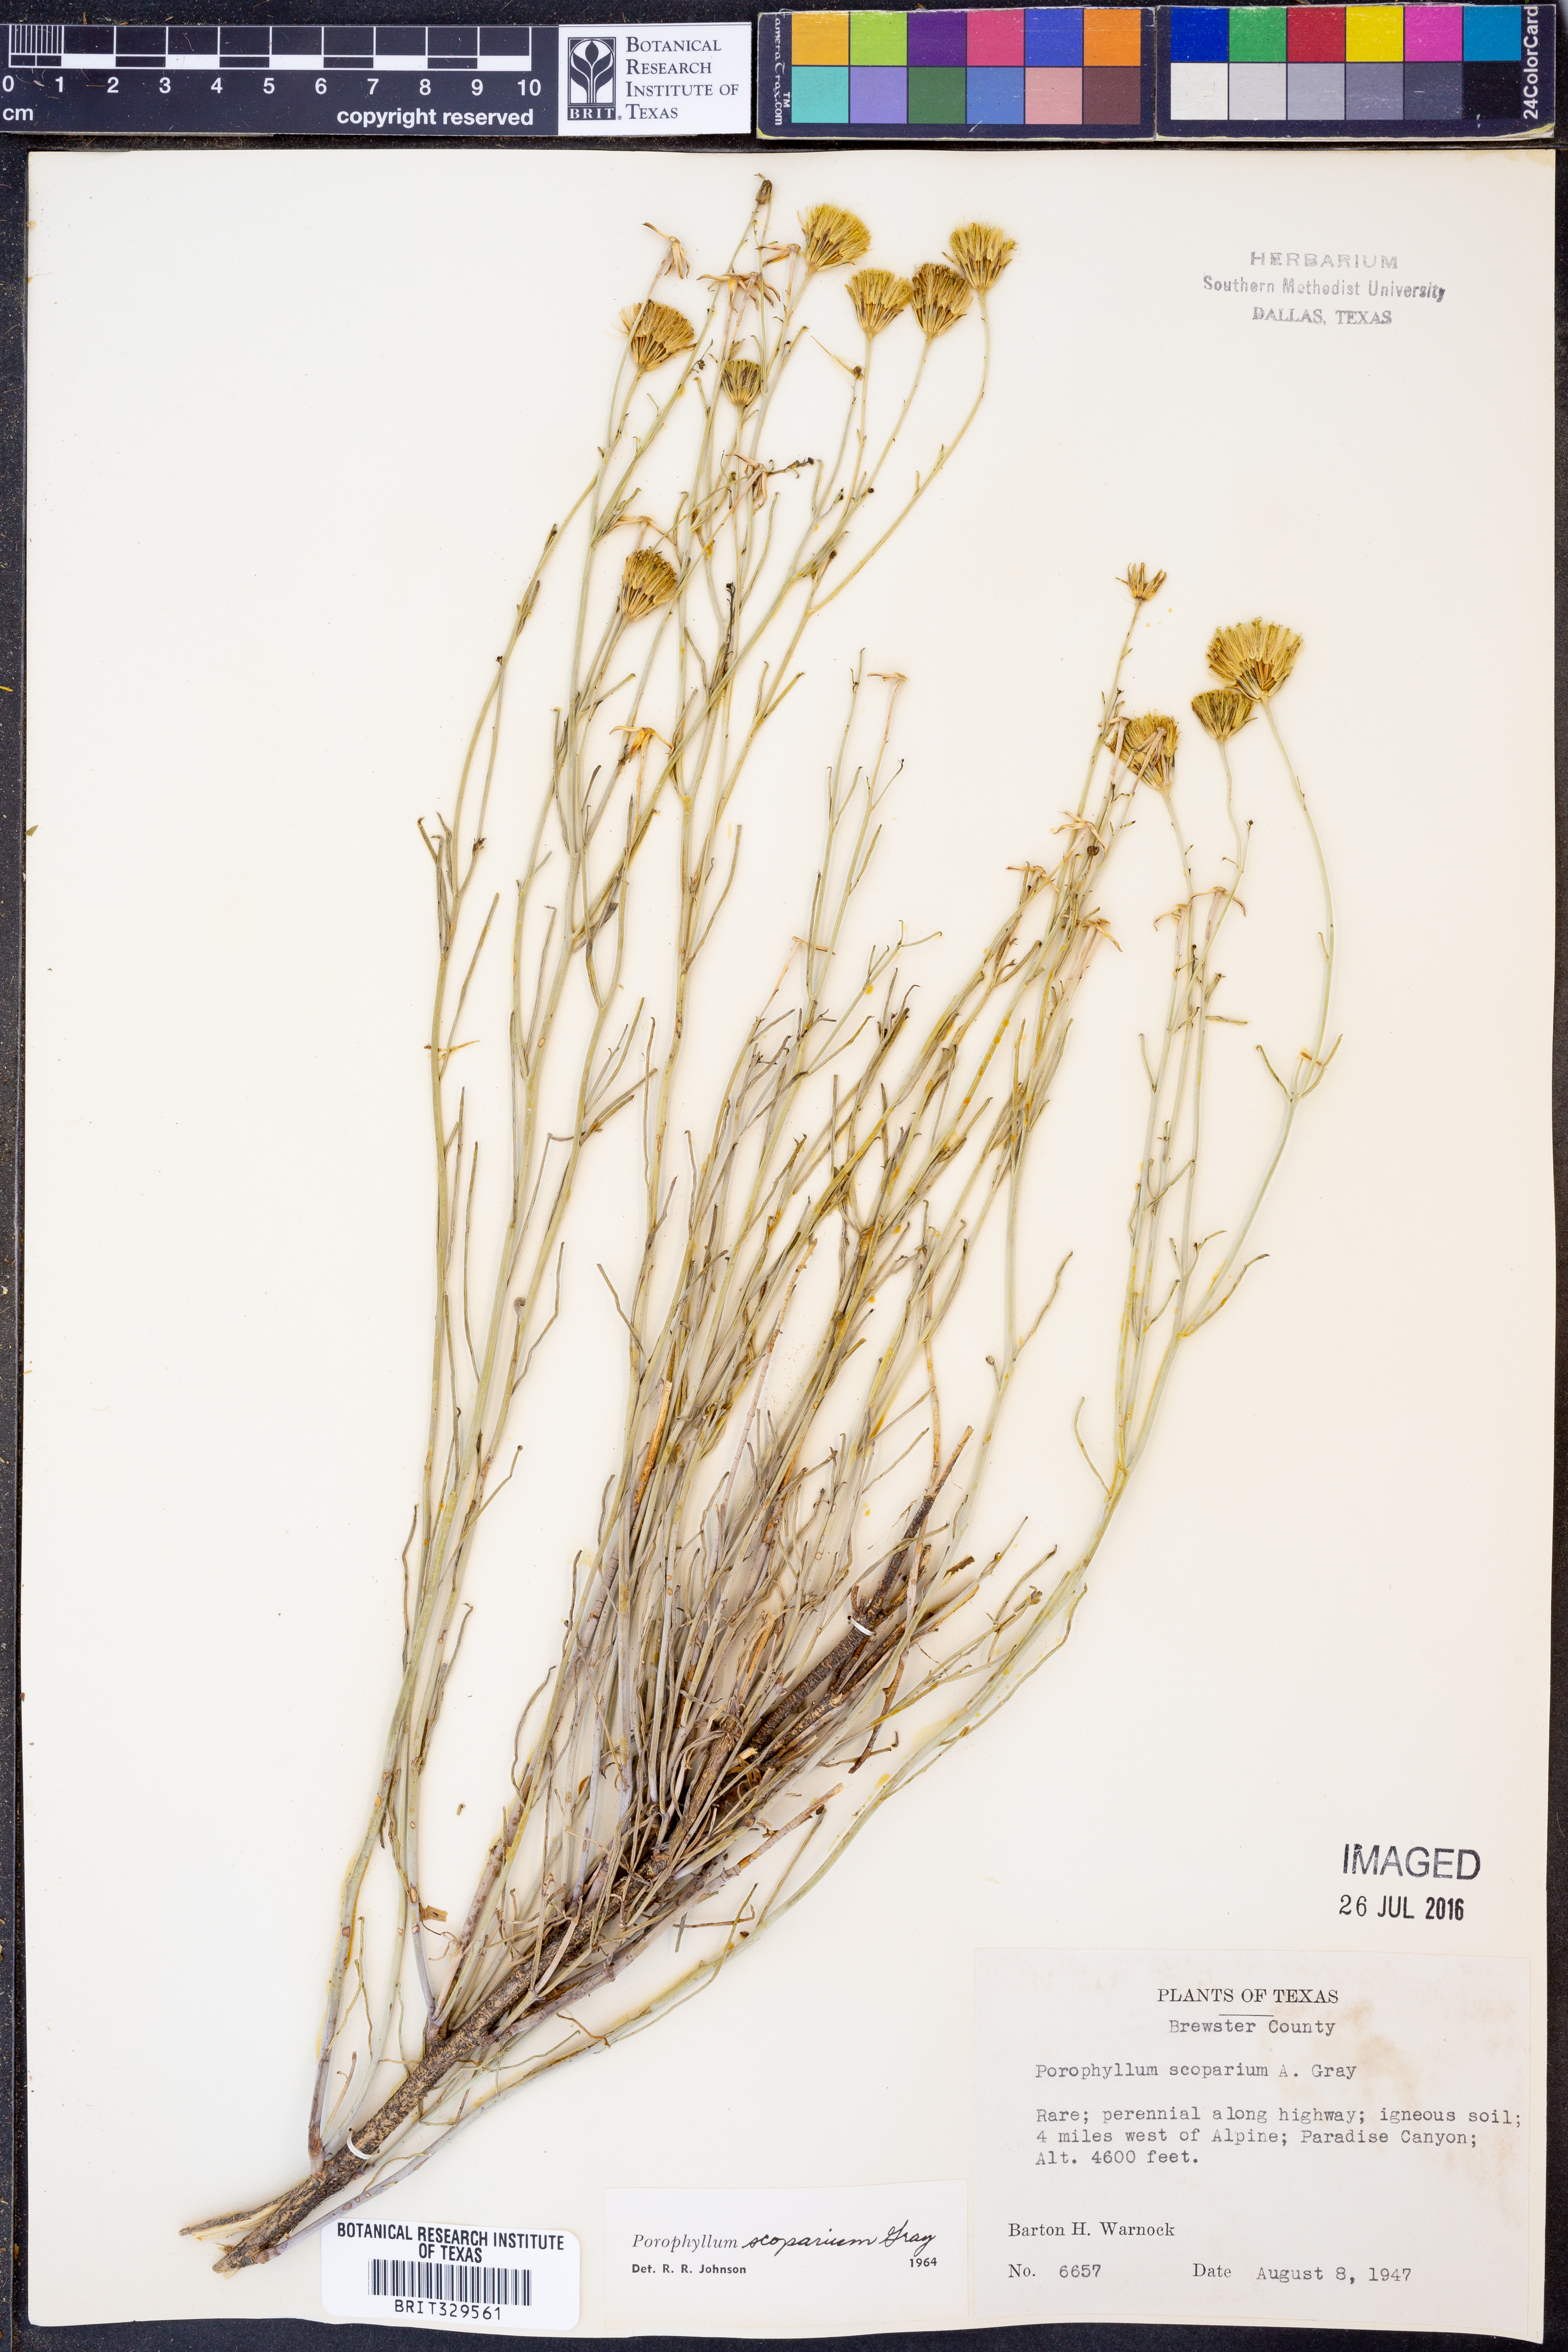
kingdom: Plantae
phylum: Tracheophyta
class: Magnoliopsida
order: Asterales
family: Asteraceae
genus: Porophyllum
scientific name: Porophyllum scoparium
